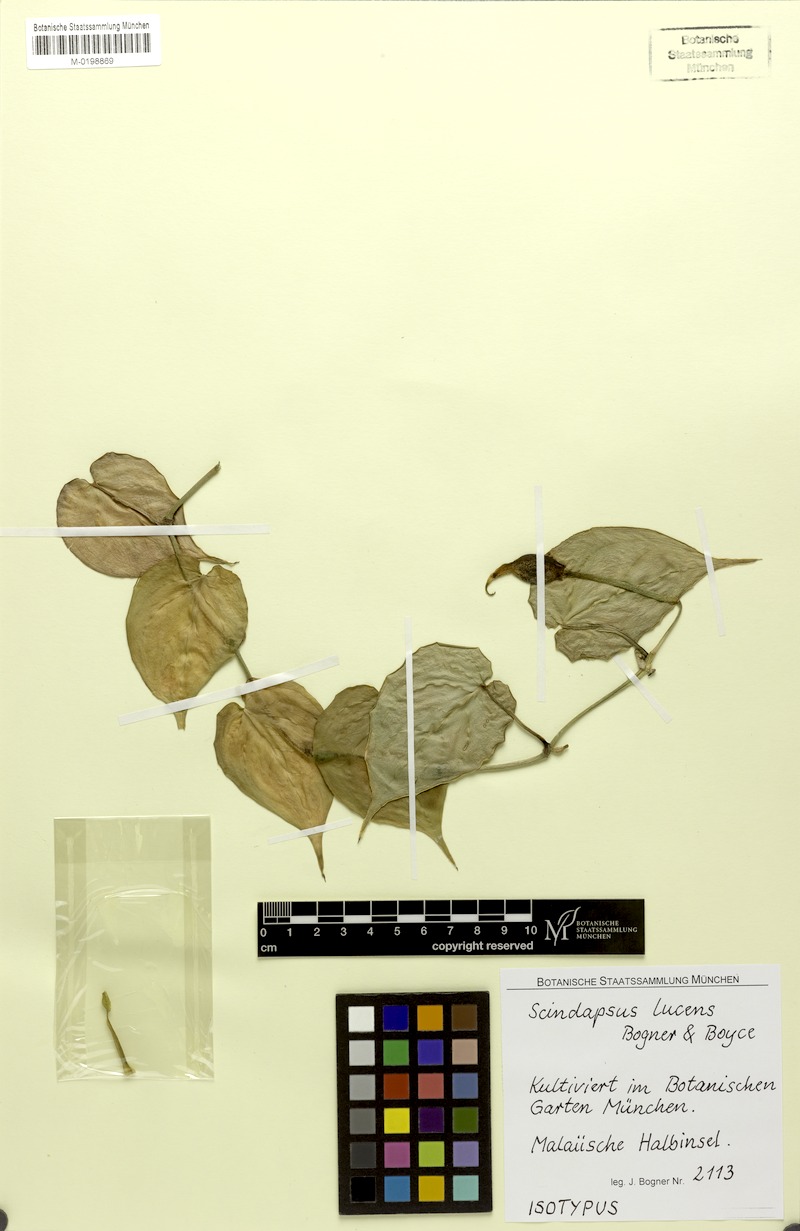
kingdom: Plantae
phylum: Tracheophyta
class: Liliopsida
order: Alismatales
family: Araceae
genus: Scindapsus
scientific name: Scindapsus lucens
